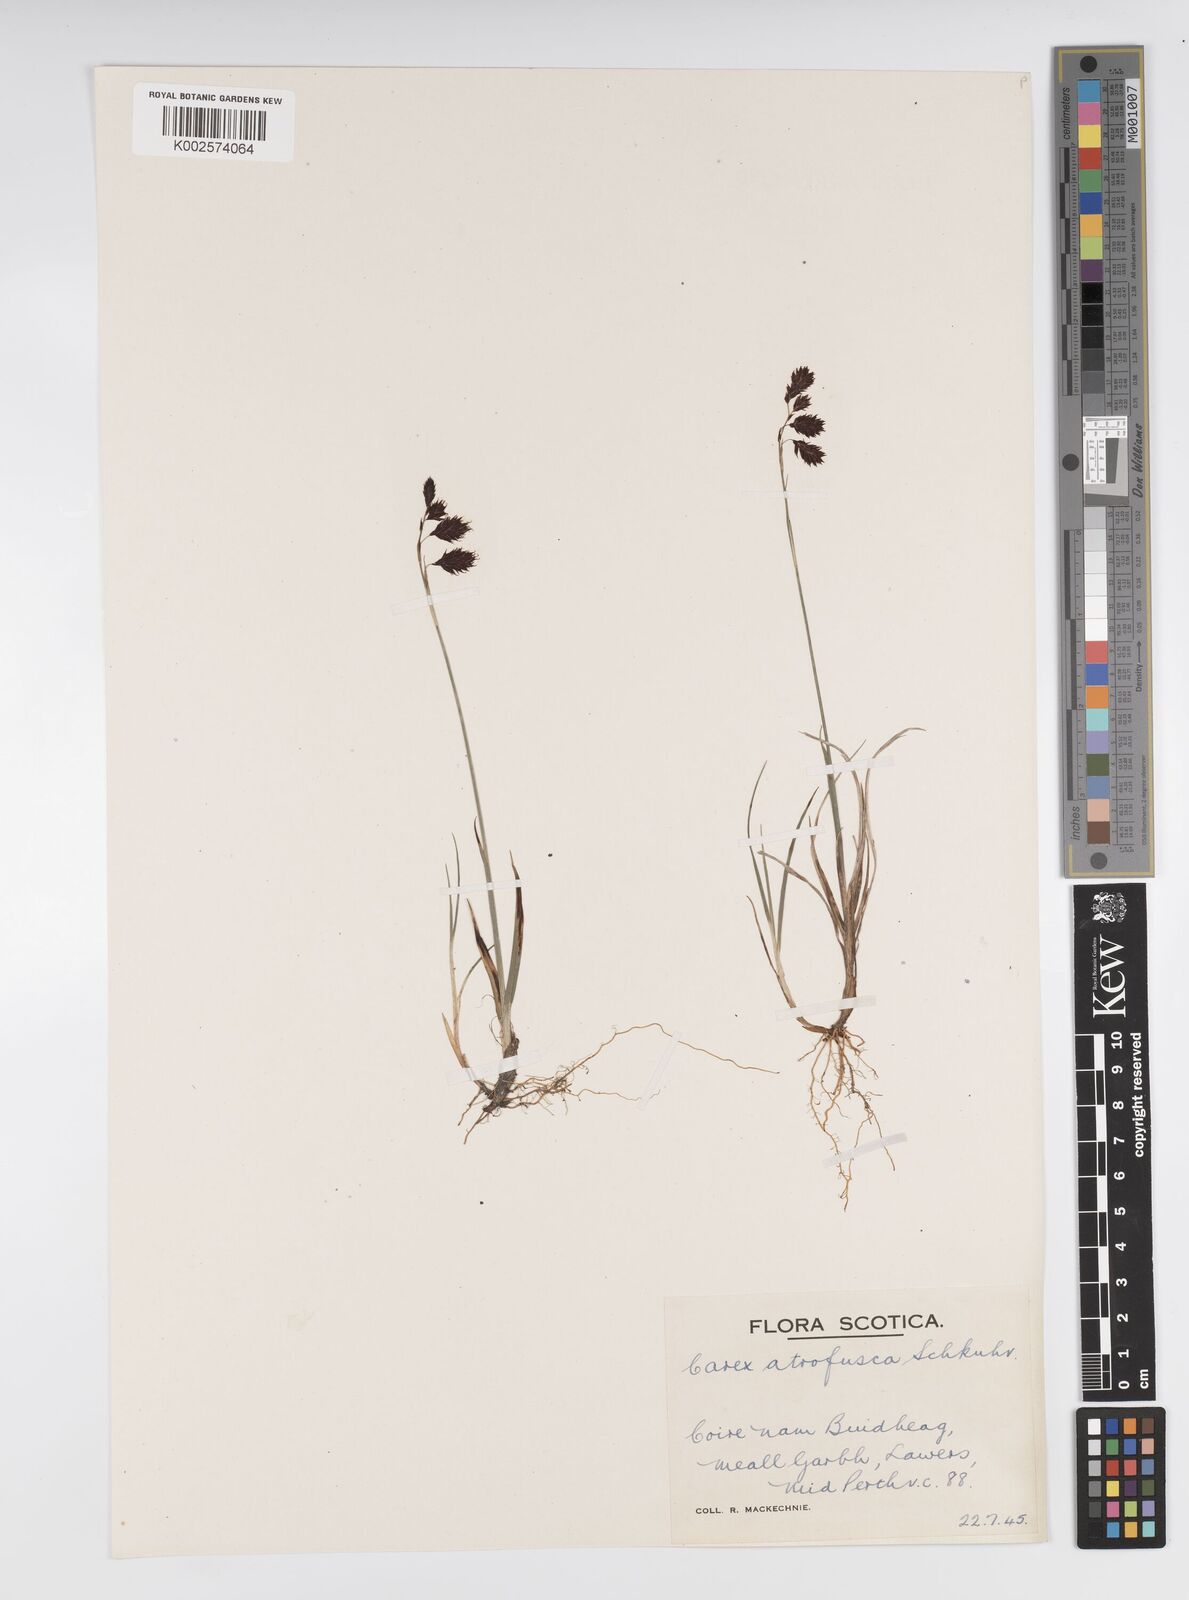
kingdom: Plantae
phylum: Tracheophyta
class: Liliopsida
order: Poales
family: Cyperaceae
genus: Carex
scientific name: Carex atrofusca
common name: Scorched alpine-sedge
